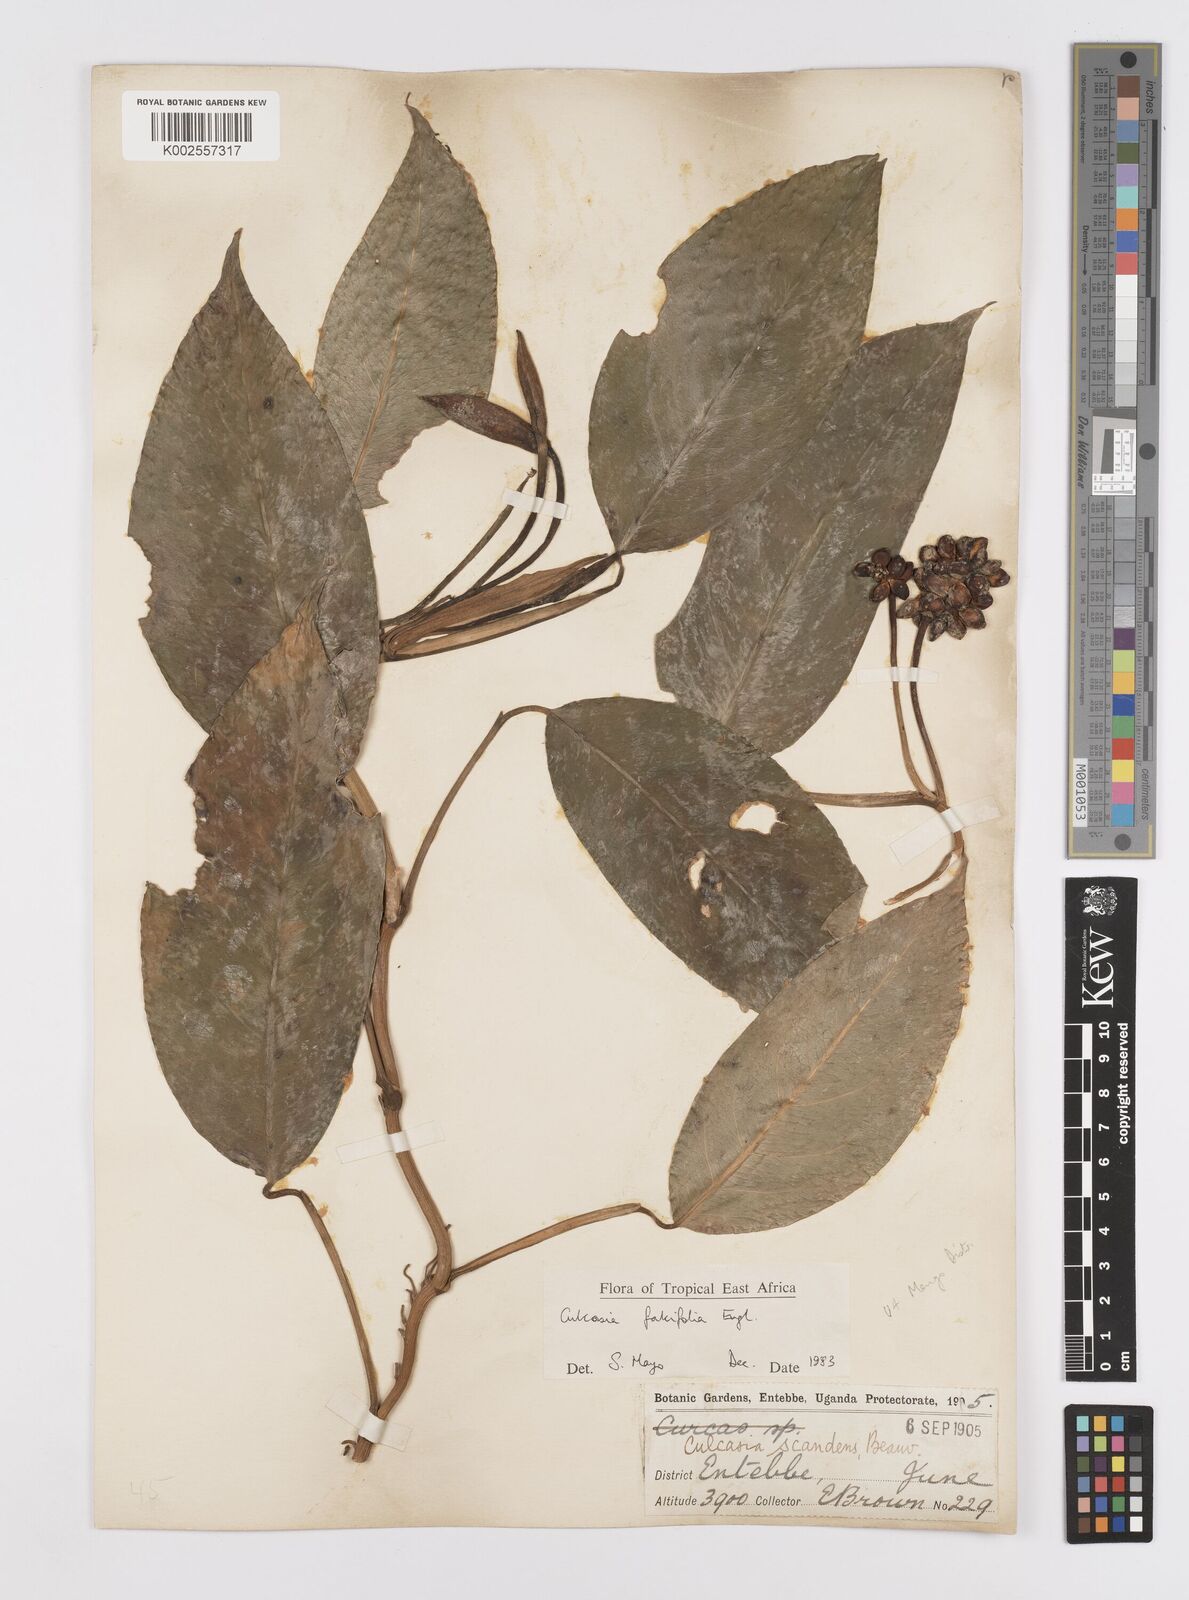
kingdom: Plantae
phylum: Tracheophyta
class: Liliopsida
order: Alismatales
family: Araceae
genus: Culcasia
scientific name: Culcasia falcifolia
